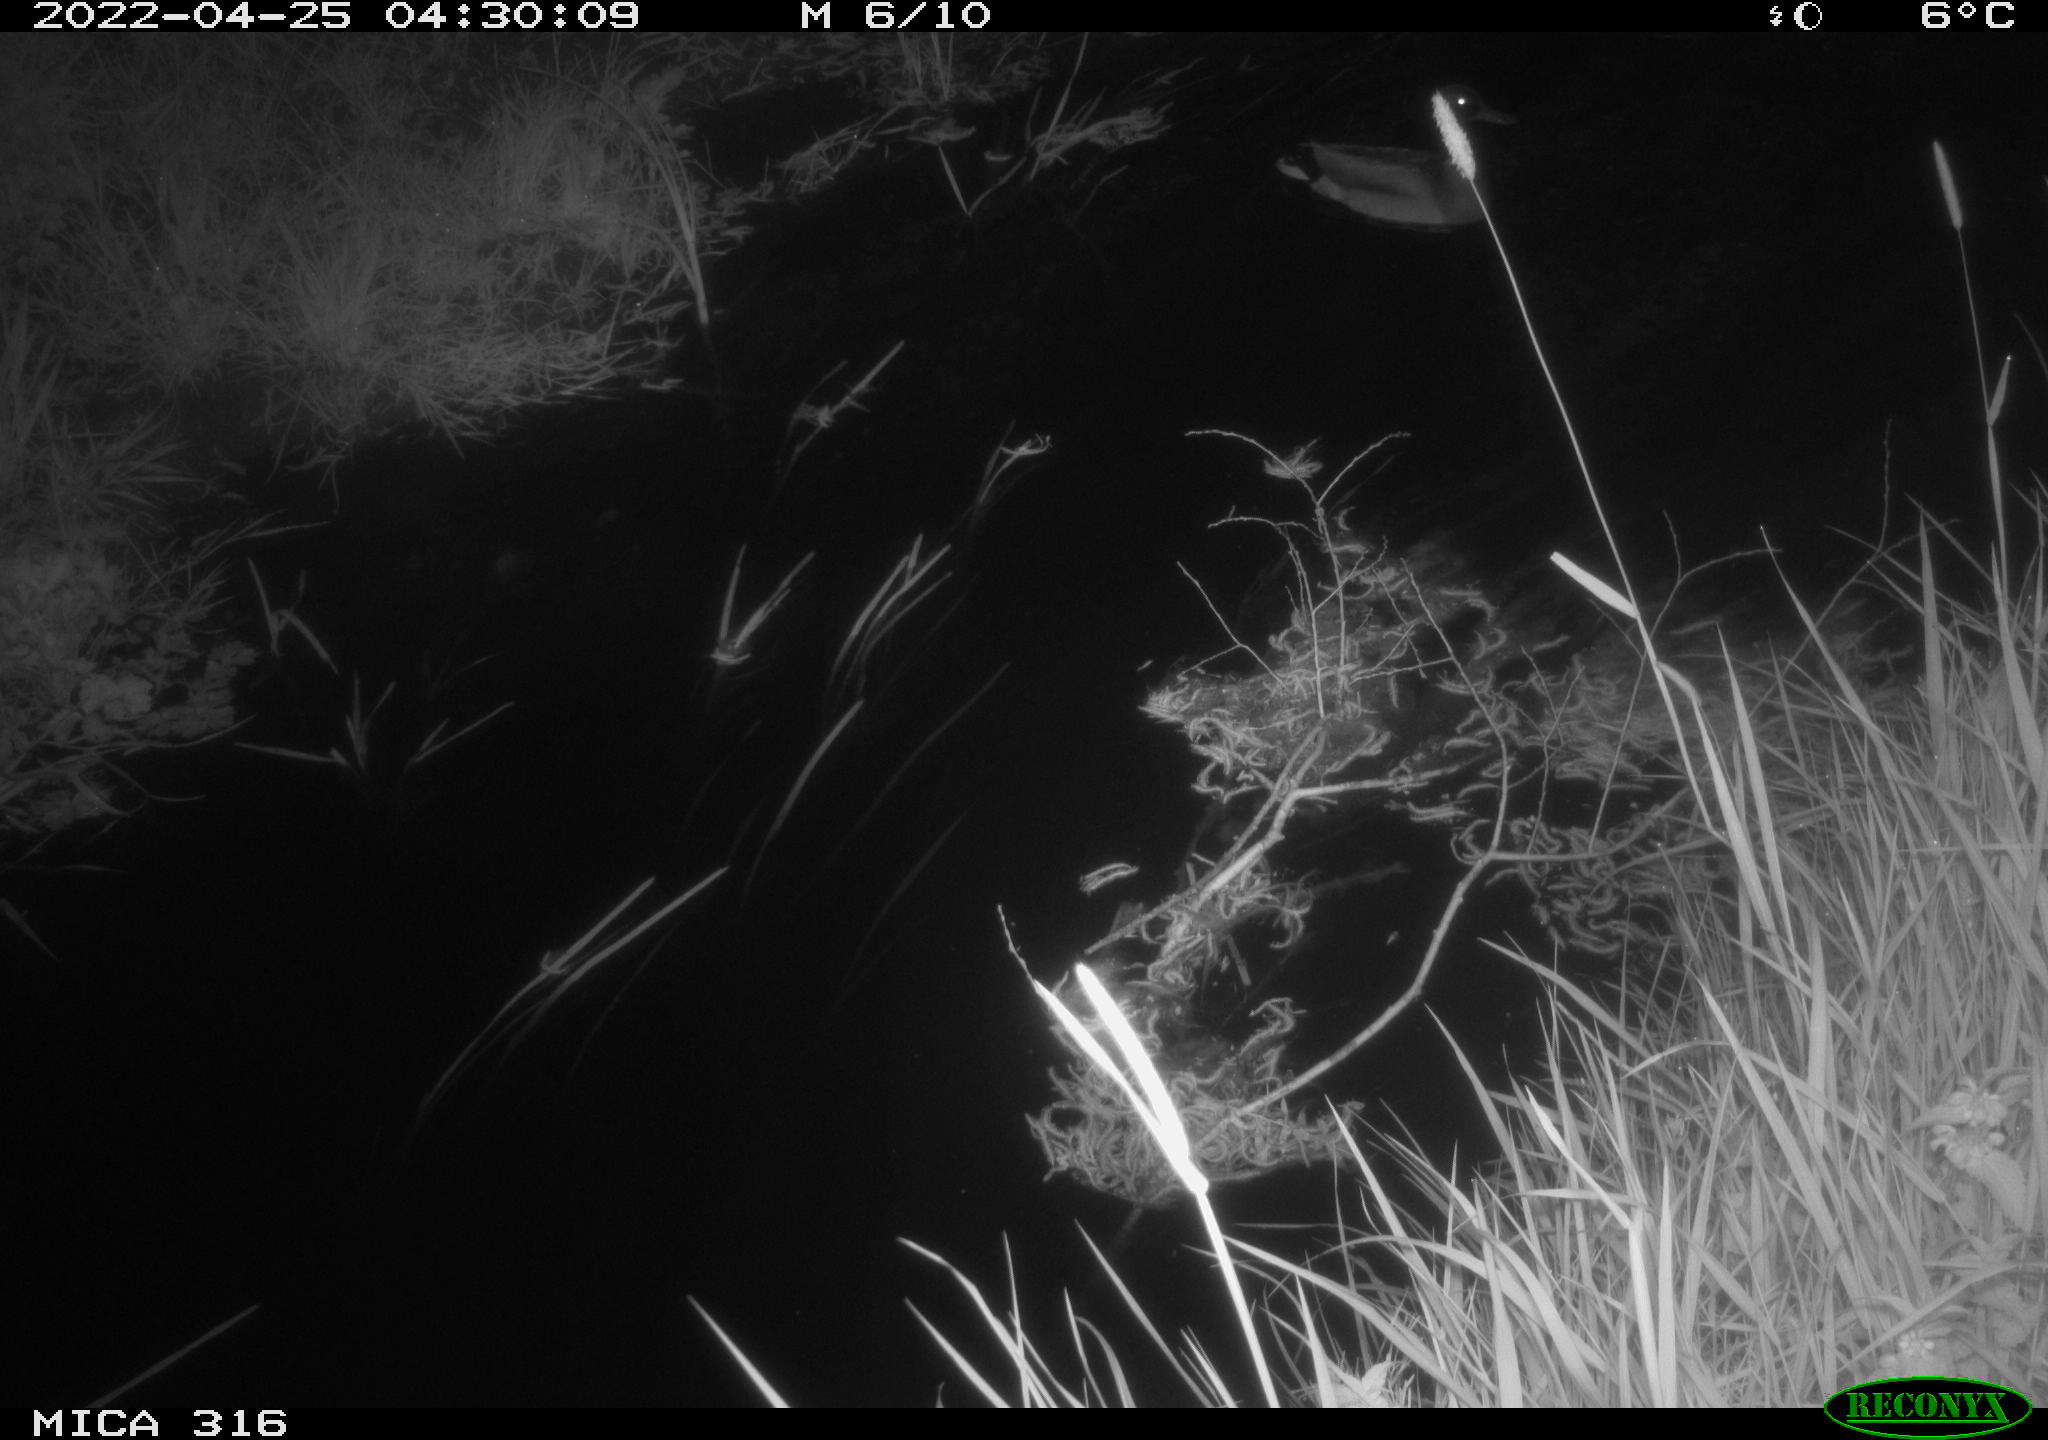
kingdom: Animalia
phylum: Chordata
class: Aves
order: Anseriformes
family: Anatidae
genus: Anas
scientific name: Anas platyrhynchos
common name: Mallard
